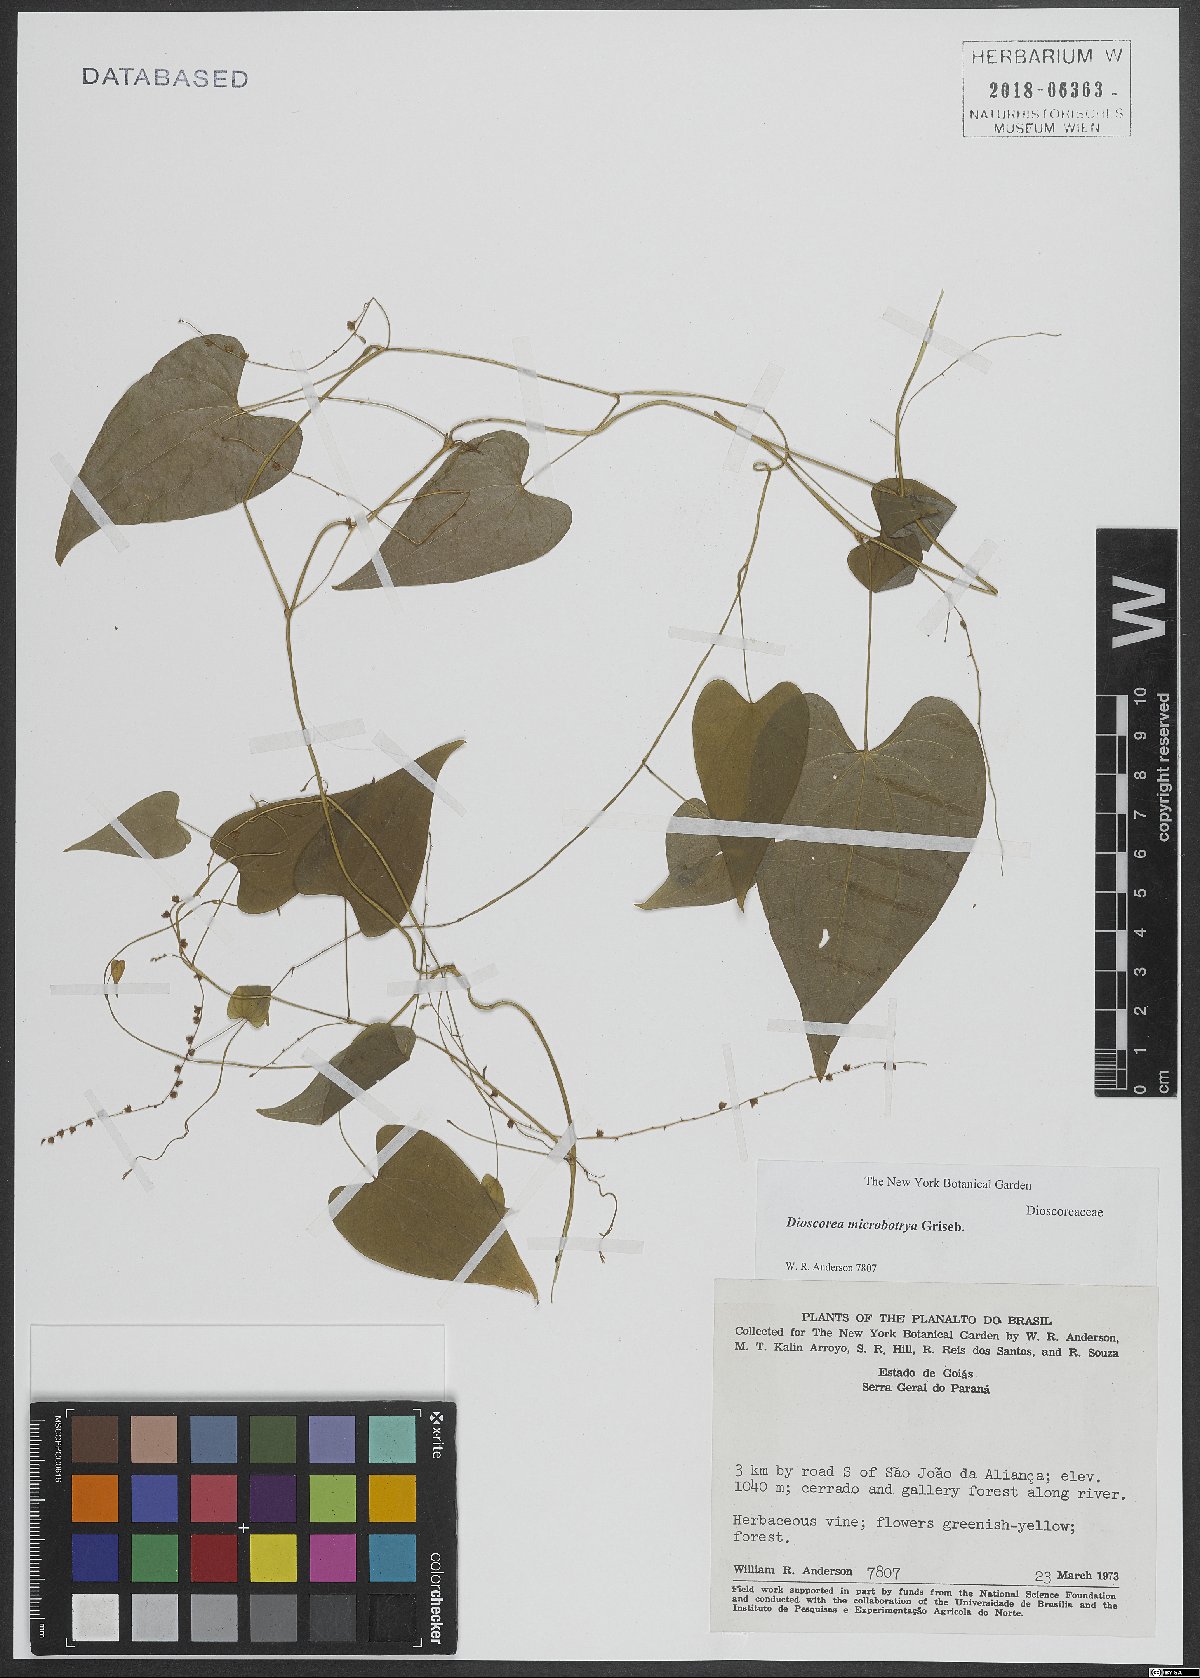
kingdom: Plantae
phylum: Tracheophyta
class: Liliopsida
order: Dioscoreales
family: Dioscoreaceae
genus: Dioscorea
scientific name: Dioscorea microbotrya
